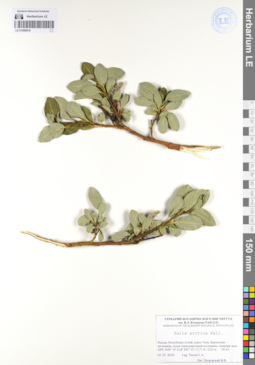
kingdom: Plantae
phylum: Tracheophyta
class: Magnoliopsida
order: Malpighiales
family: Salicaceae
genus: Salix
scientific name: Salix arctica
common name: Arctic willow
